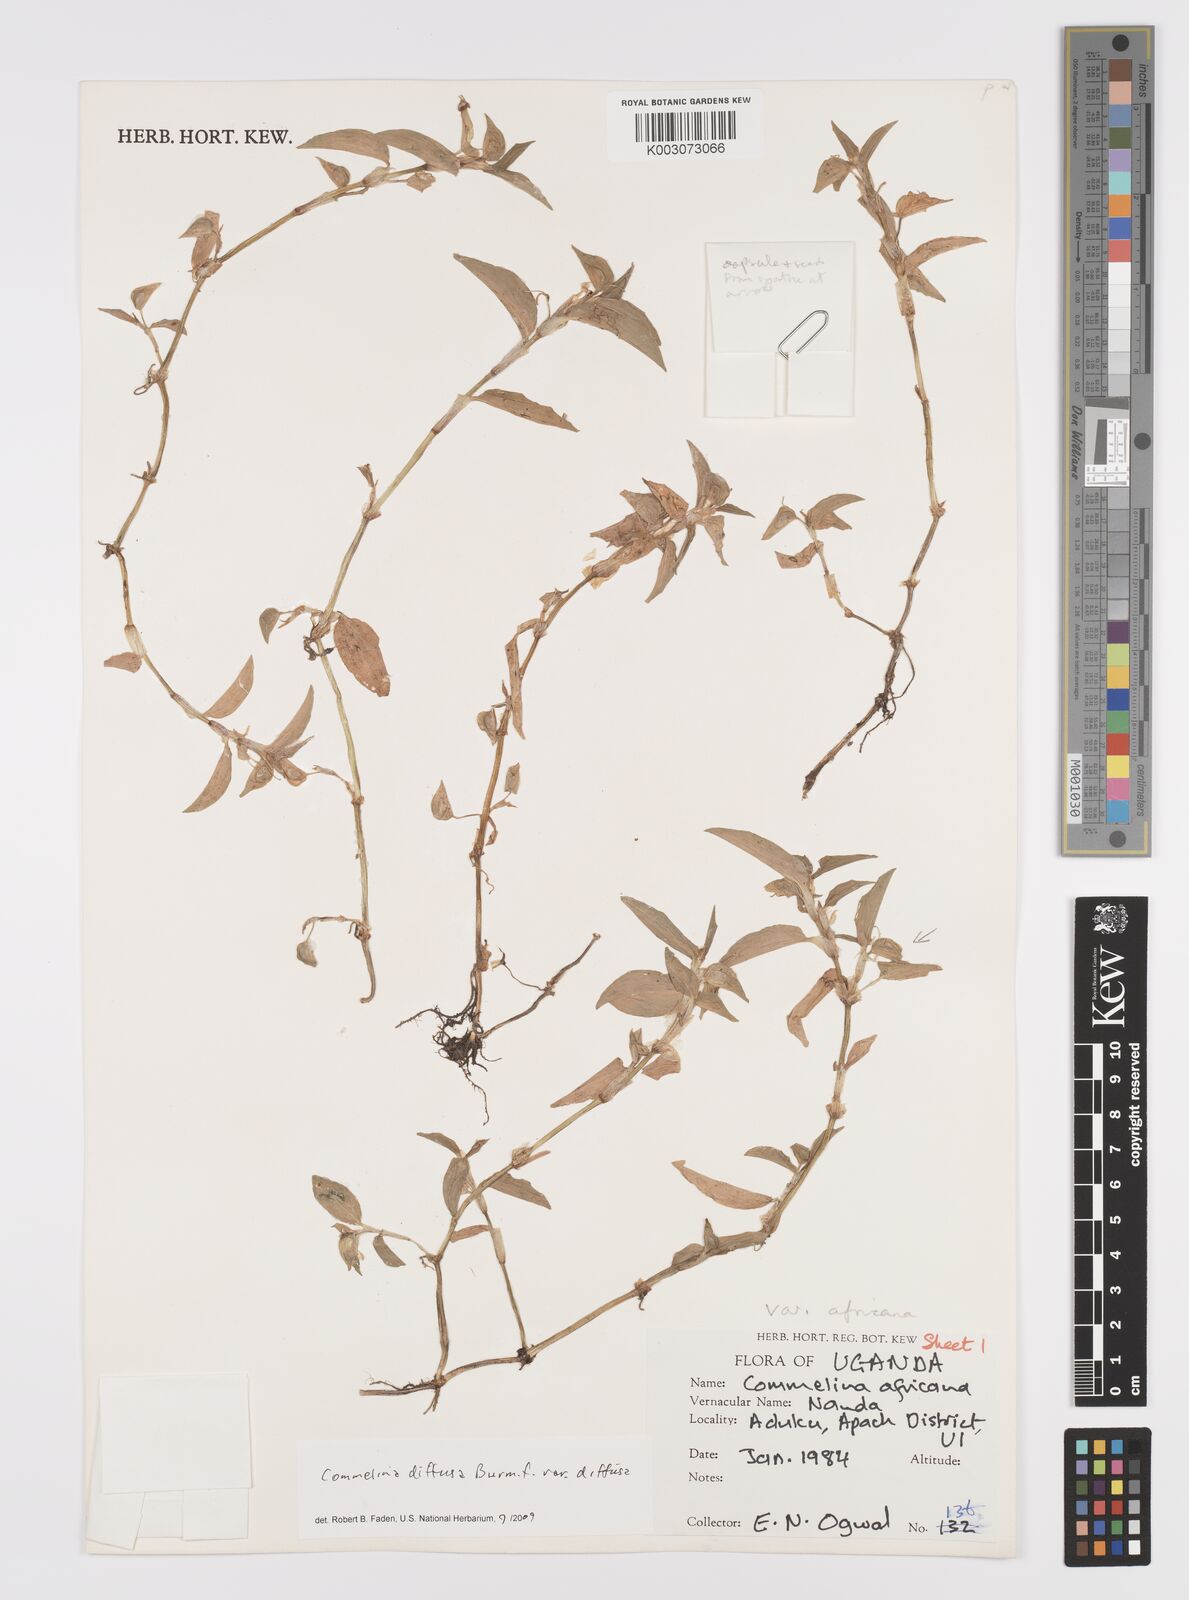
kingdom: Plantae
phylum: Tracheophyta
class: Liliopsida
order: Commelinales
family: Commelinaceae
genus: Commelina
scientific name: Commelina diffusa
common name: Climbing dayflower
